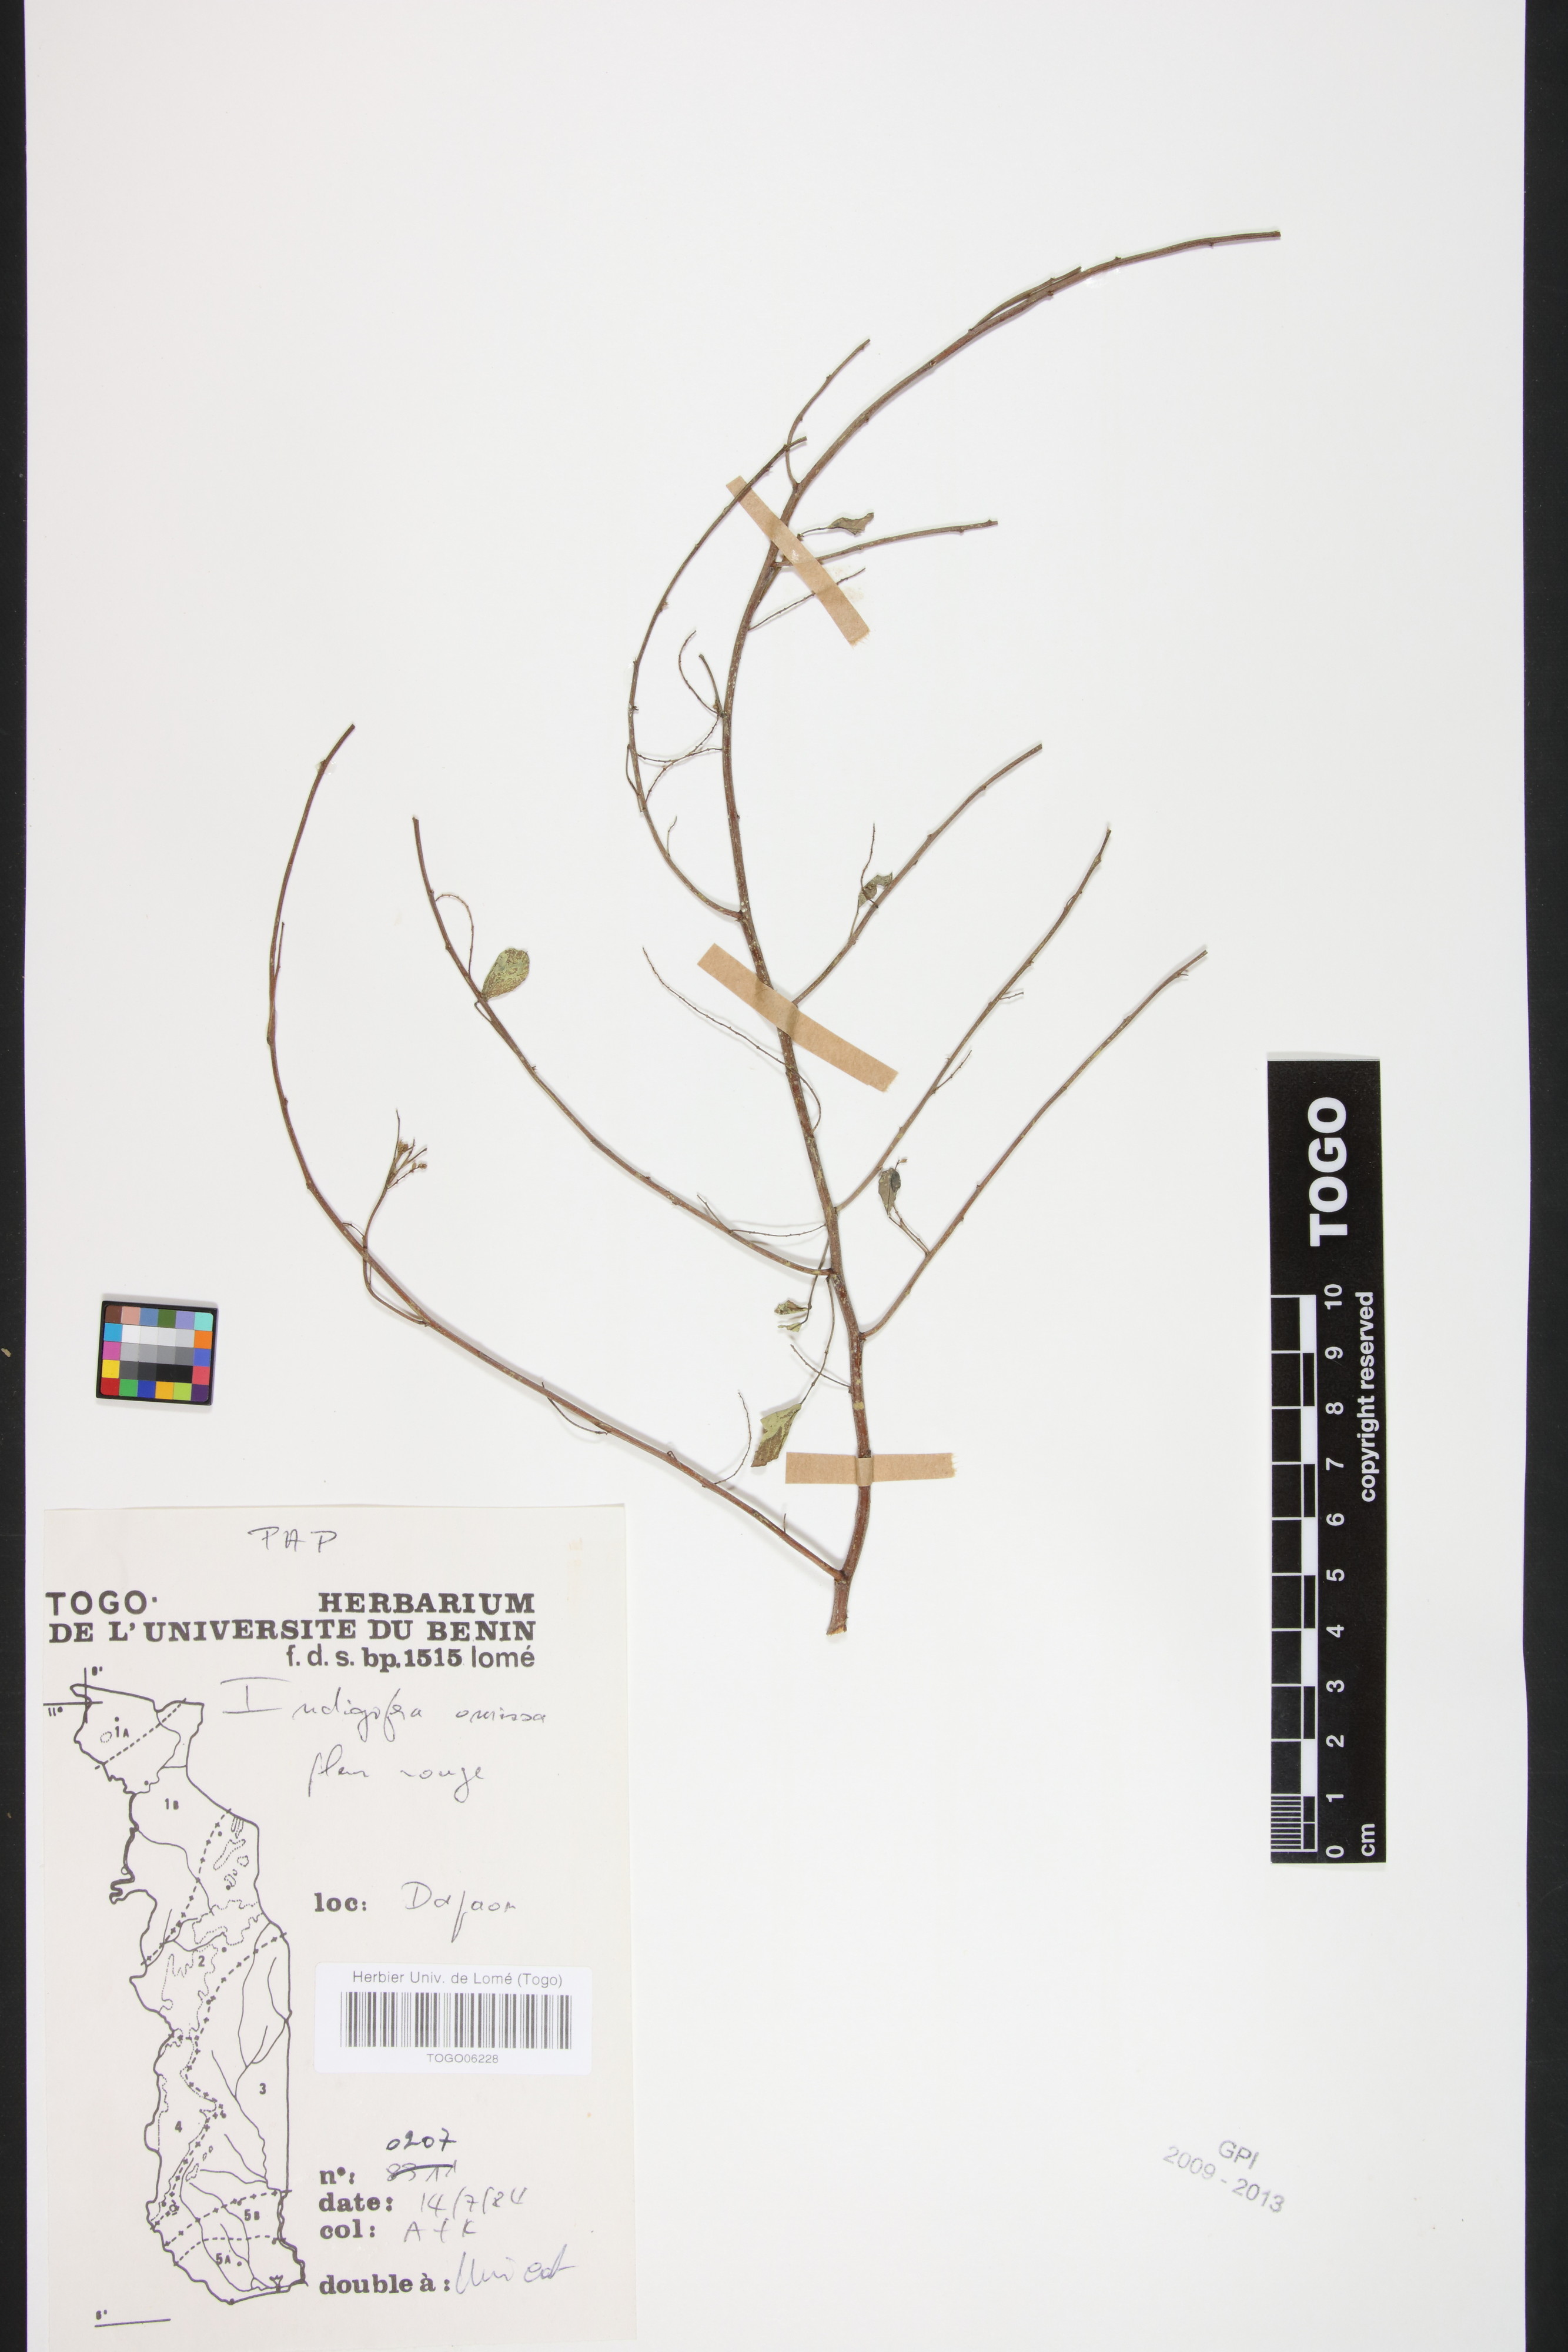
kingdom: Plantae
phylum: Tracheophyta
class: Magnoliopsida
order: Fabales
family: Fabaceae
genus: Indigofera
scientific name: Indigofera omissa
